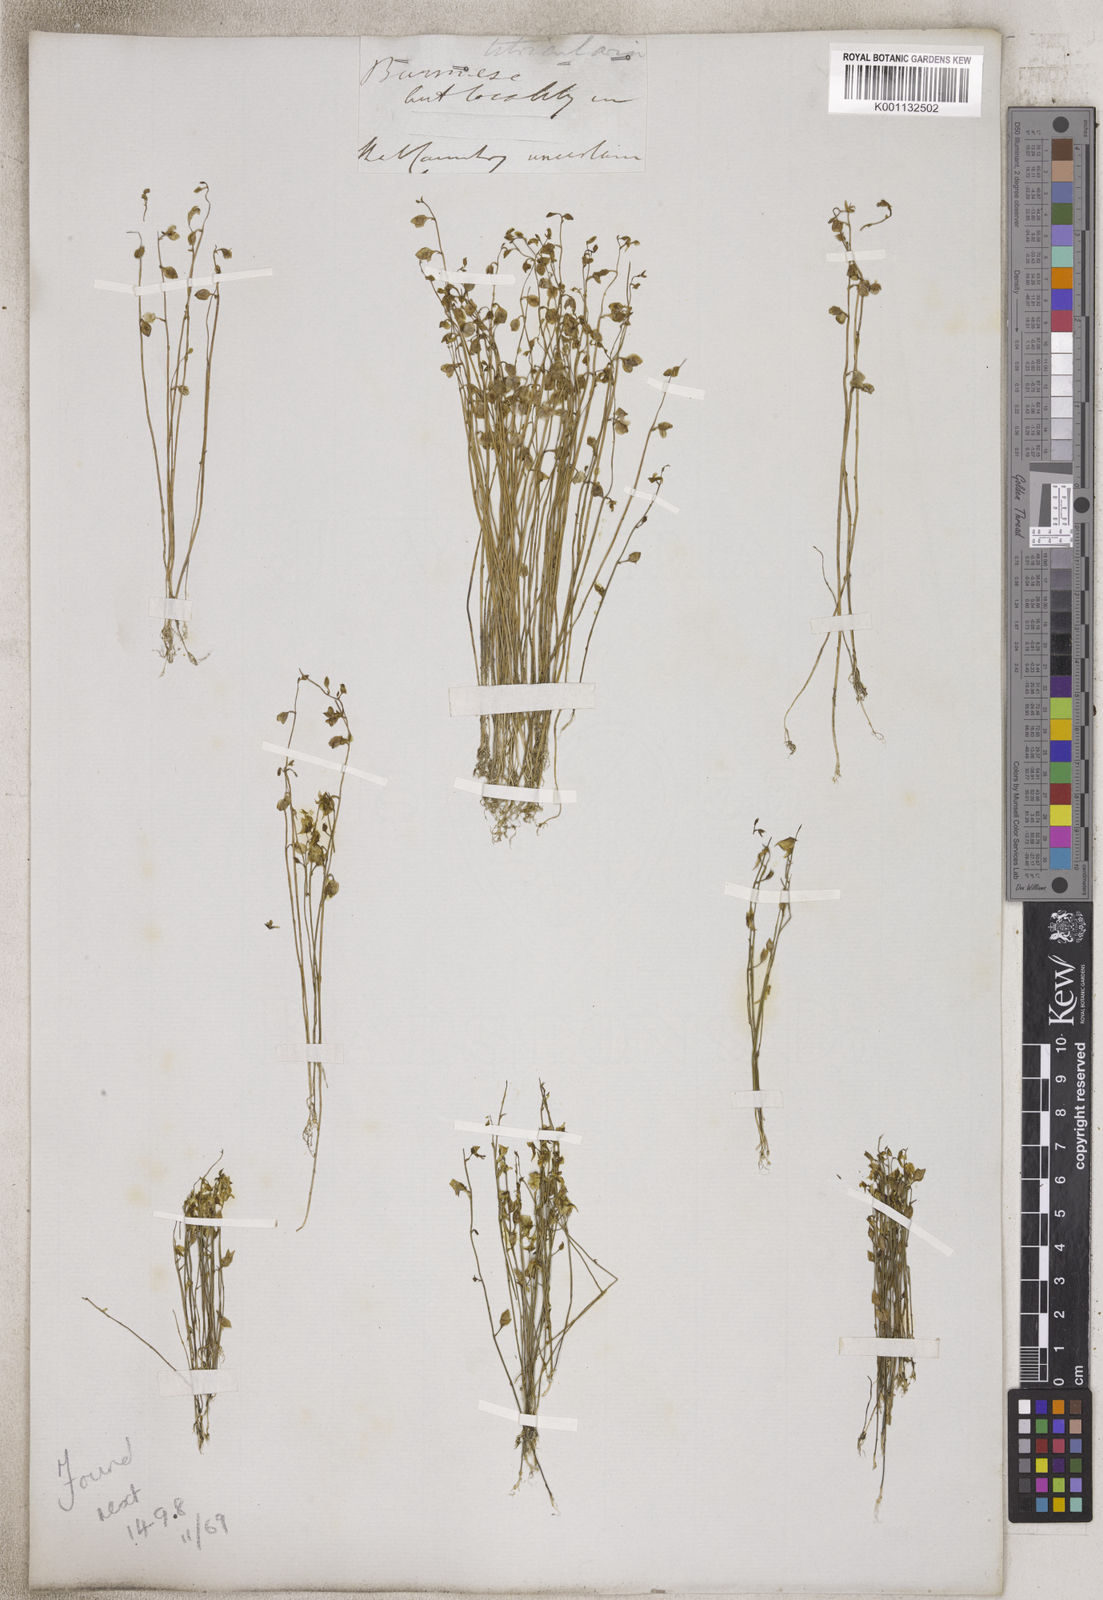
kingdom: Plantae
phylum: Tracheophyta
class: Magnoliopsida
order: Lamiales
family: Lentibulariaceae
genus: Utricularia
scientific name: Utricularia
